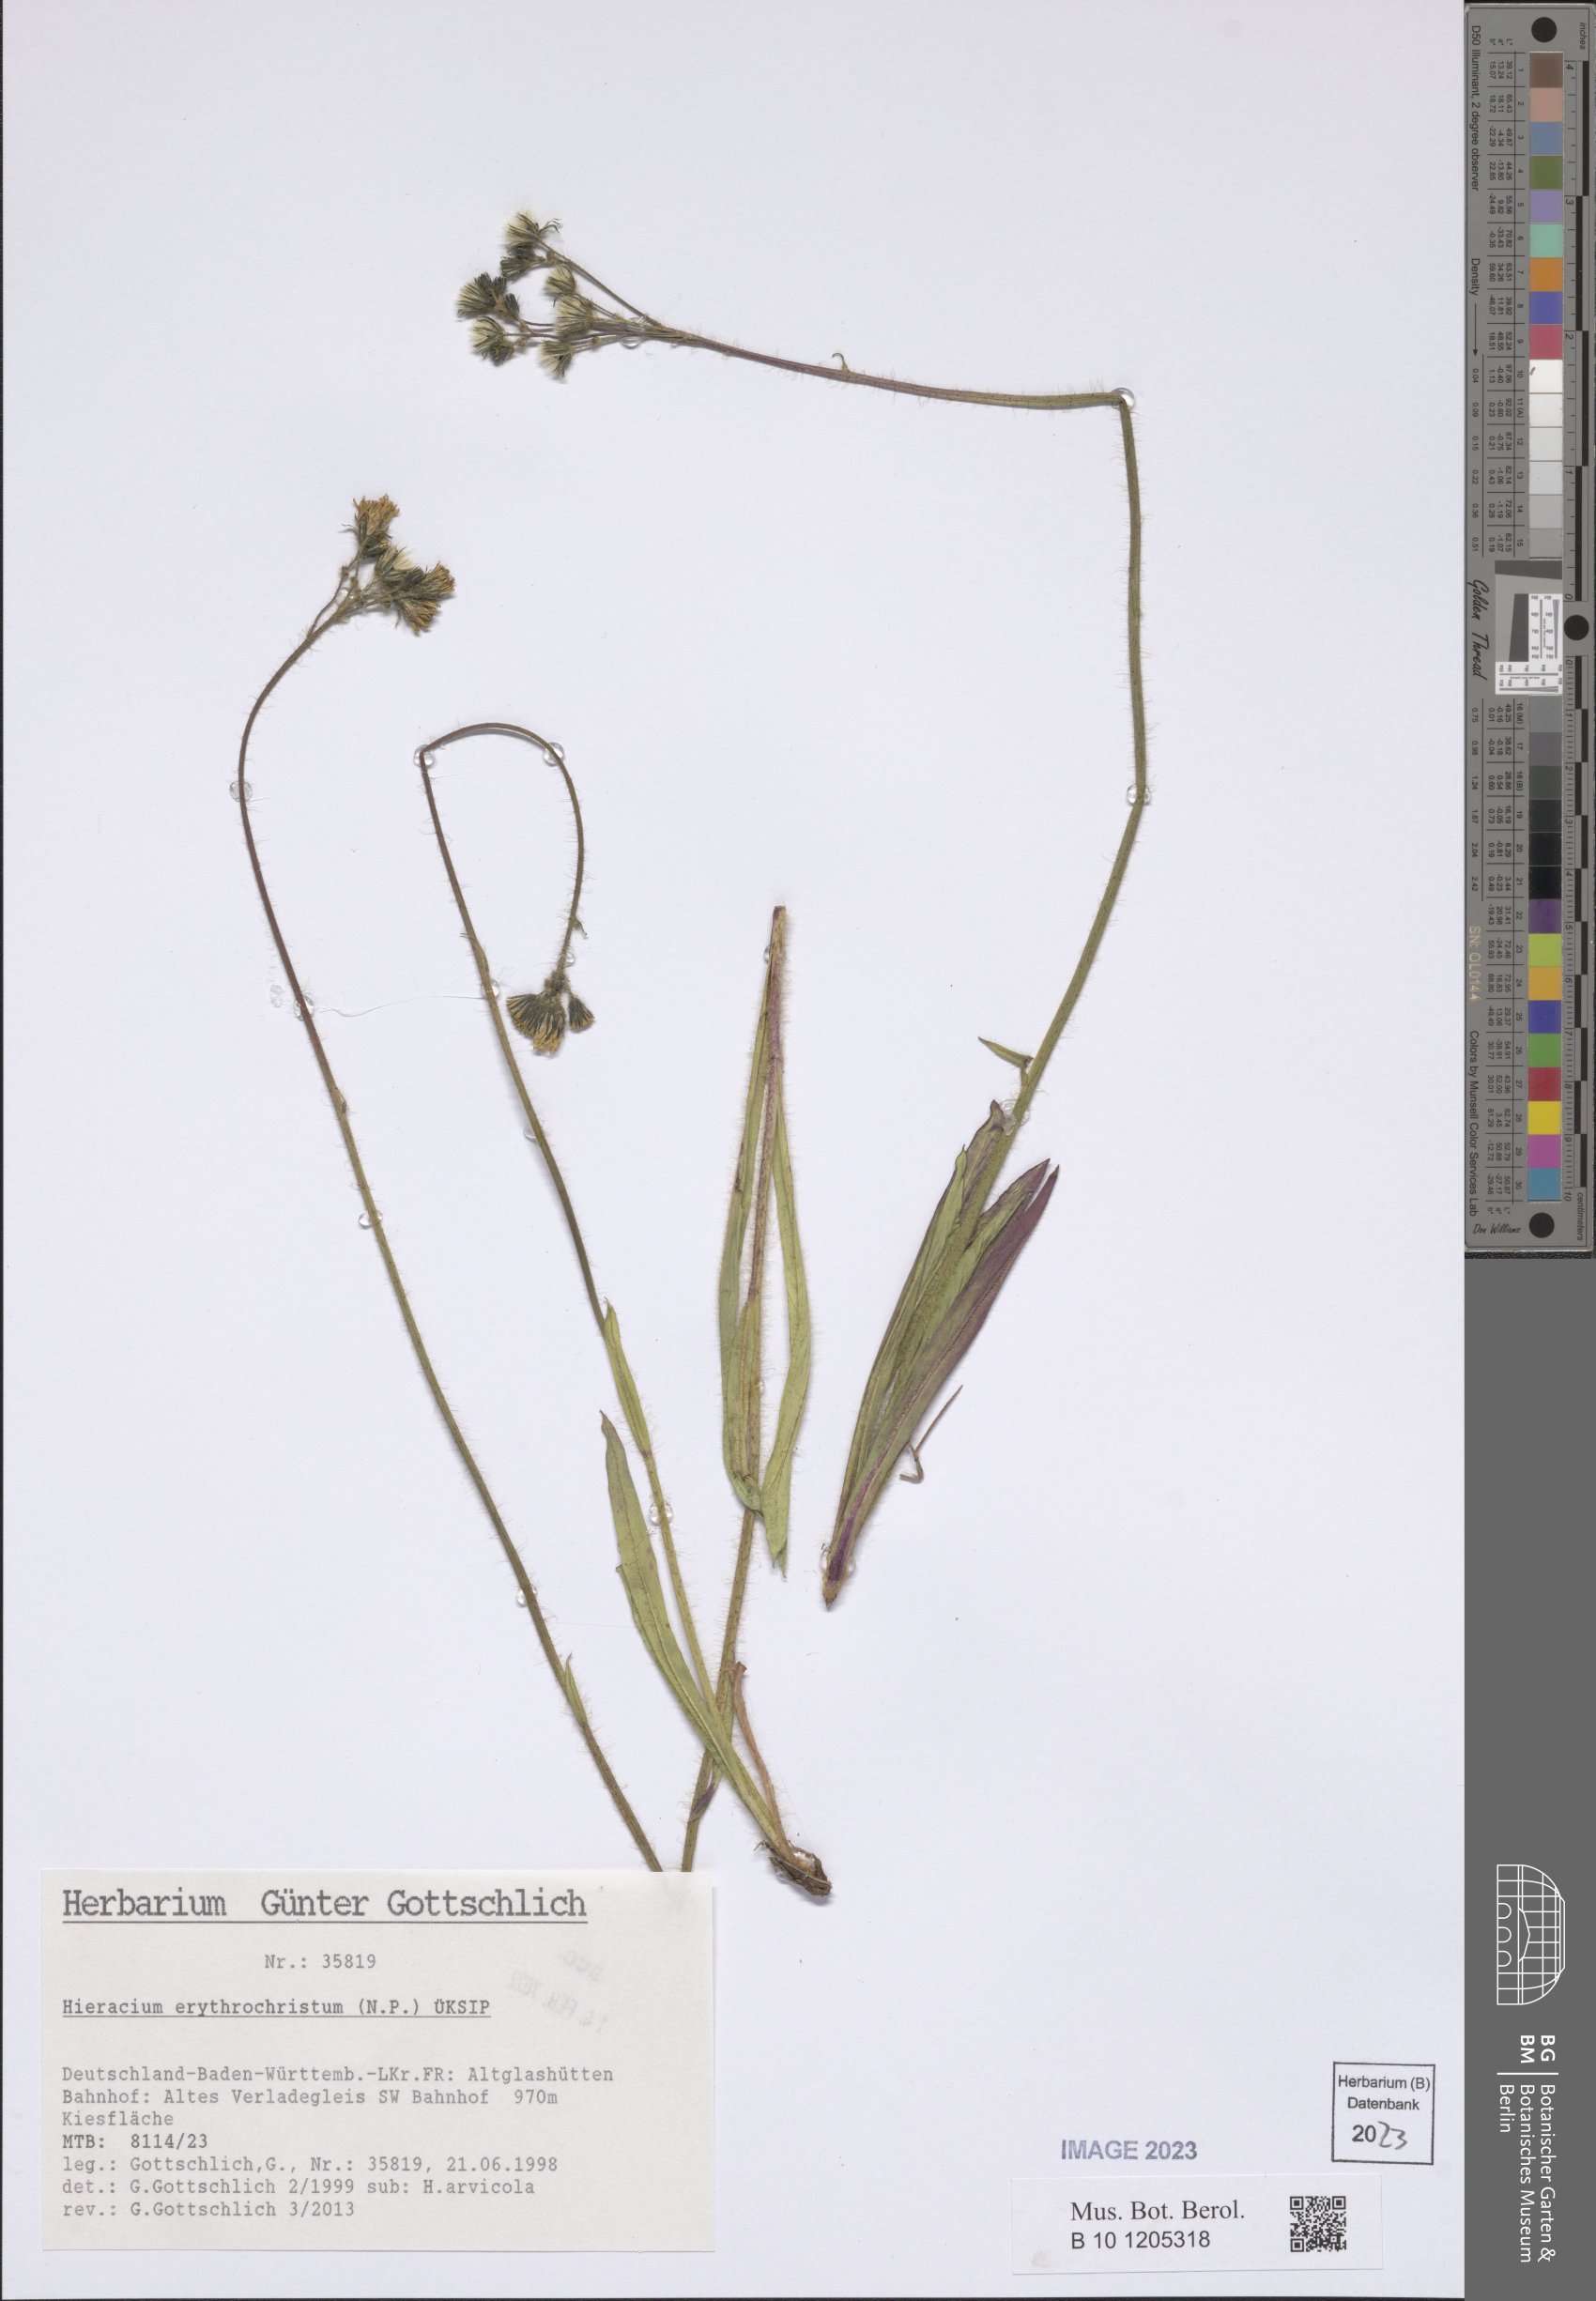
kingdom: Plantae
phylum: Tracheophyta
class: Magnoliopsida
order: Asterales
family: Asteraceae
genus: Pilosella
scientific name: Pilosella erythrochrista
